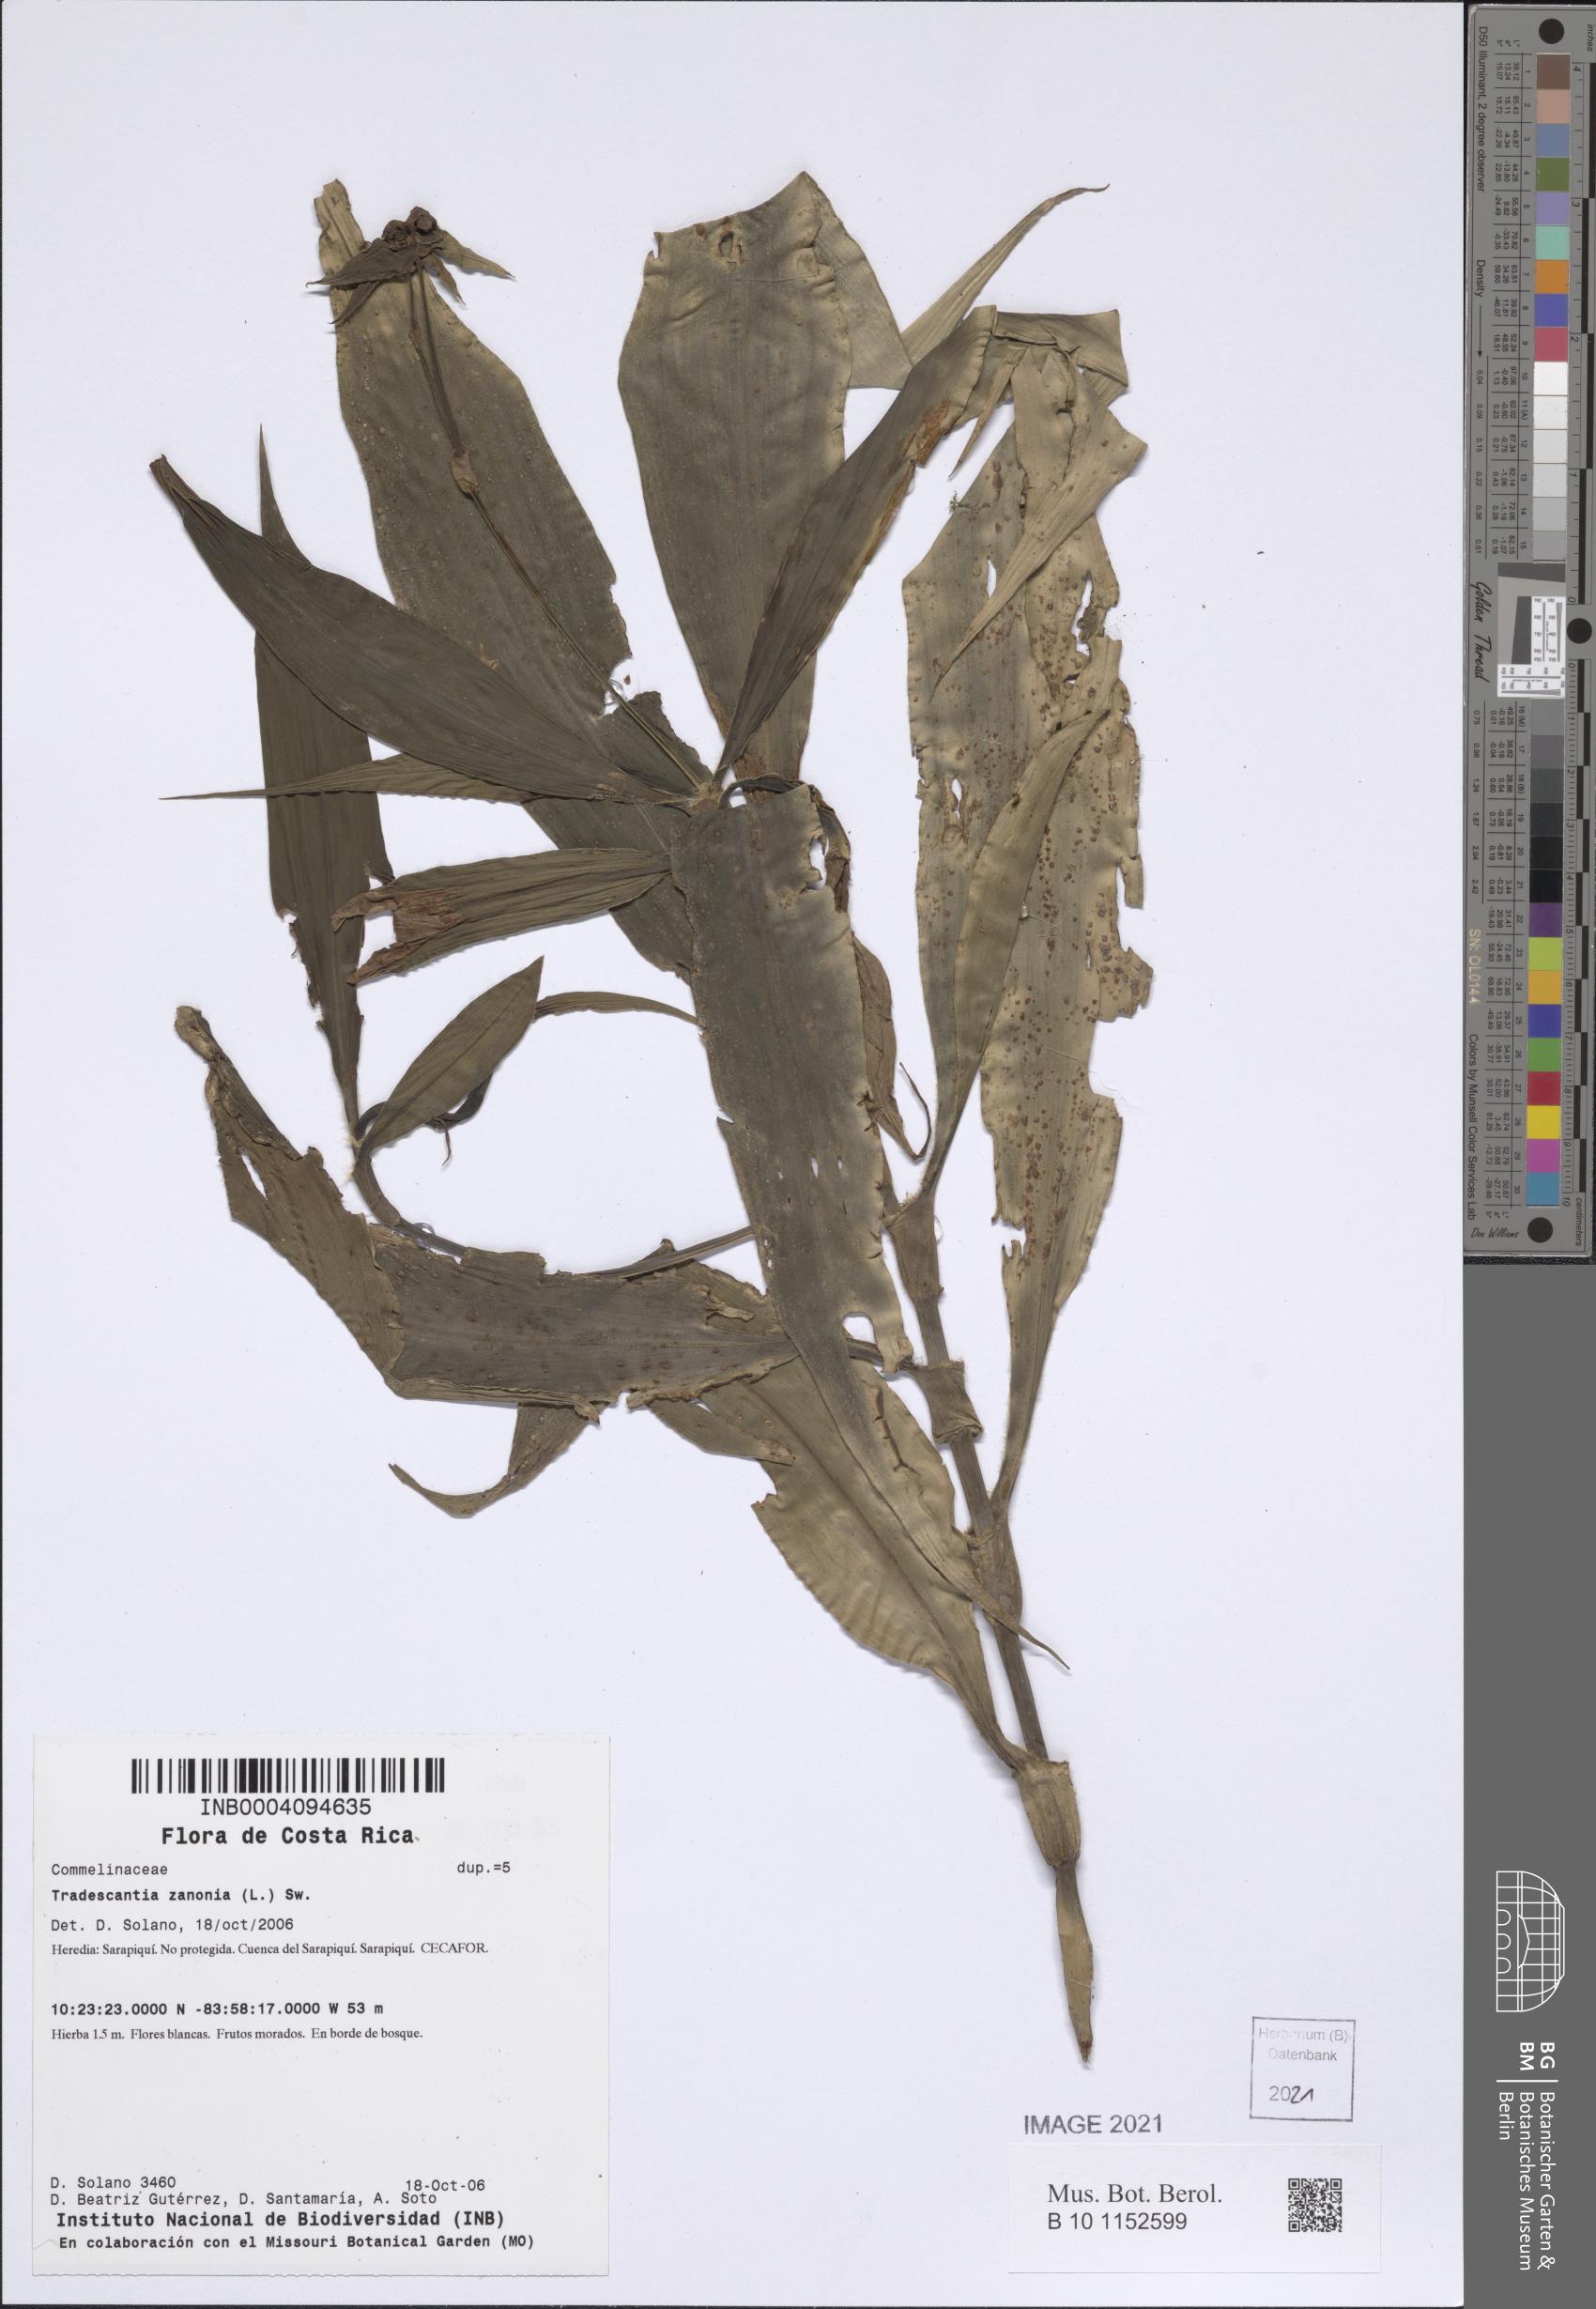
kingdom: Plantae
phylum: Tracheophyta
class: Liliopsida
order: Commelinales
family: Commelinaceae
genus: Tradescantia
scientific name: Tradescantia zanonia
